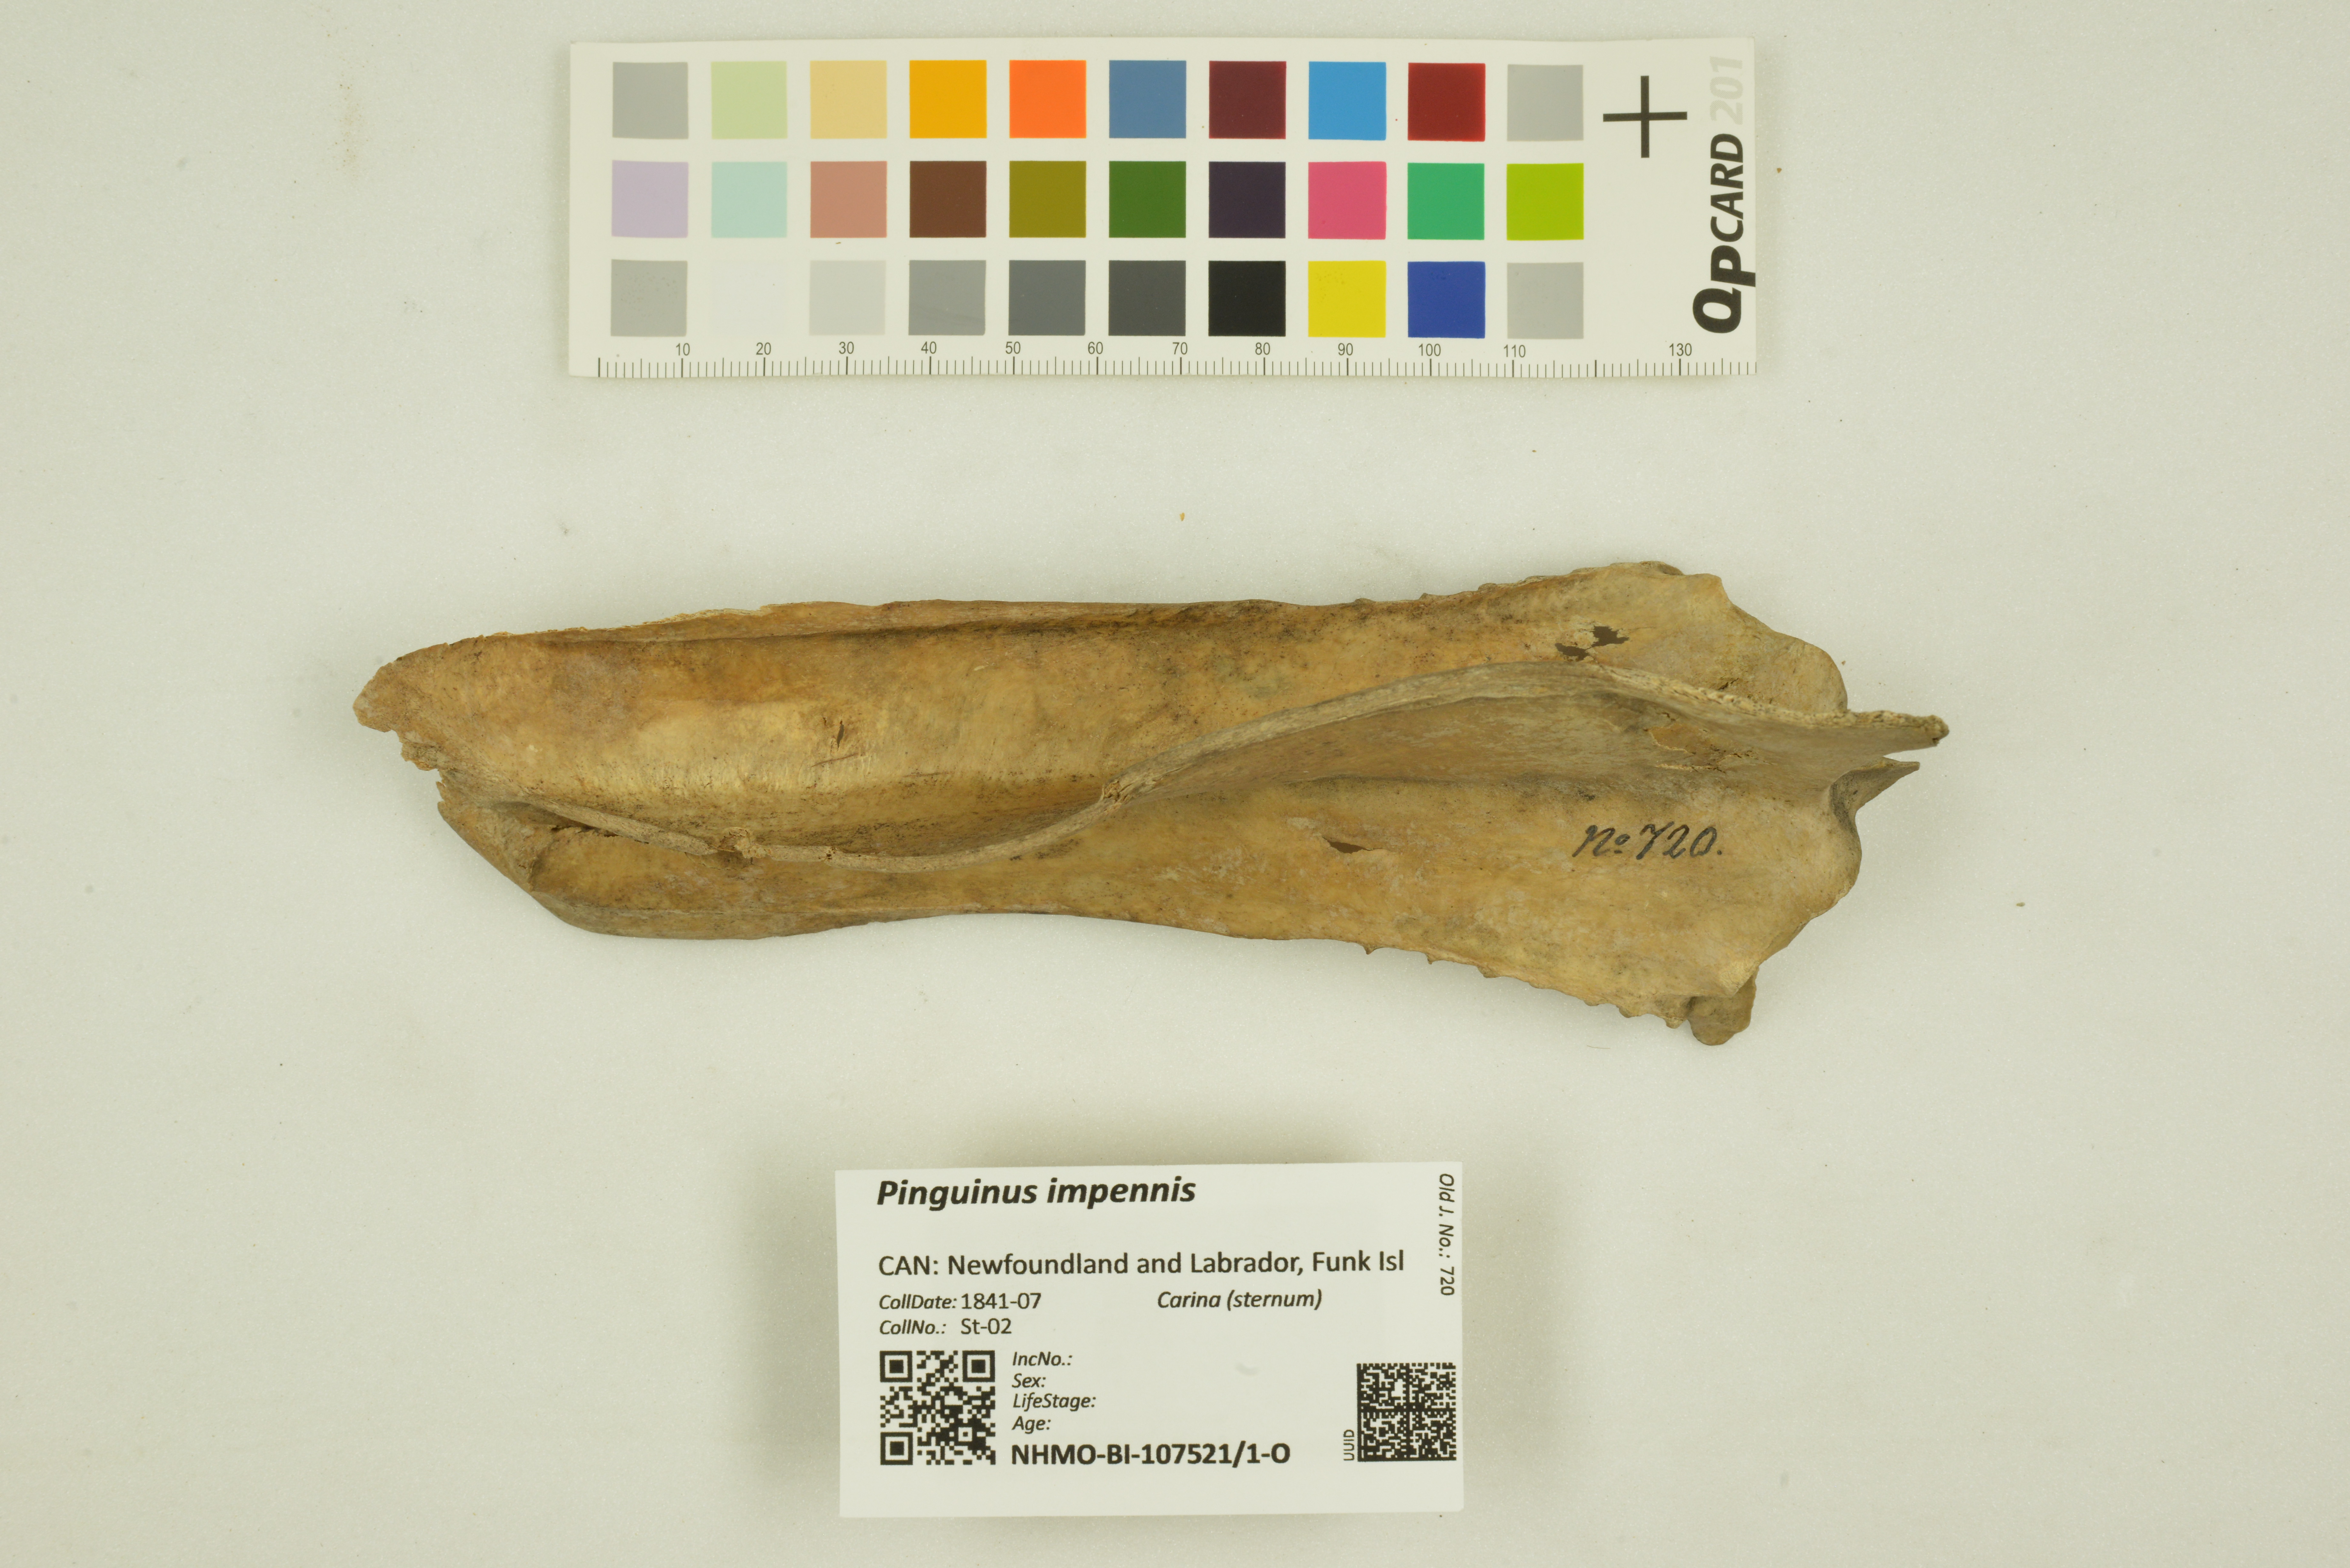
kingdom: Animalia
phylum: Chordata
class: Aves
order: Charadriiformes
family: Alcidae
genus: Pinguinus
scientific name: Pinguinus impennis
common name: Great auk
